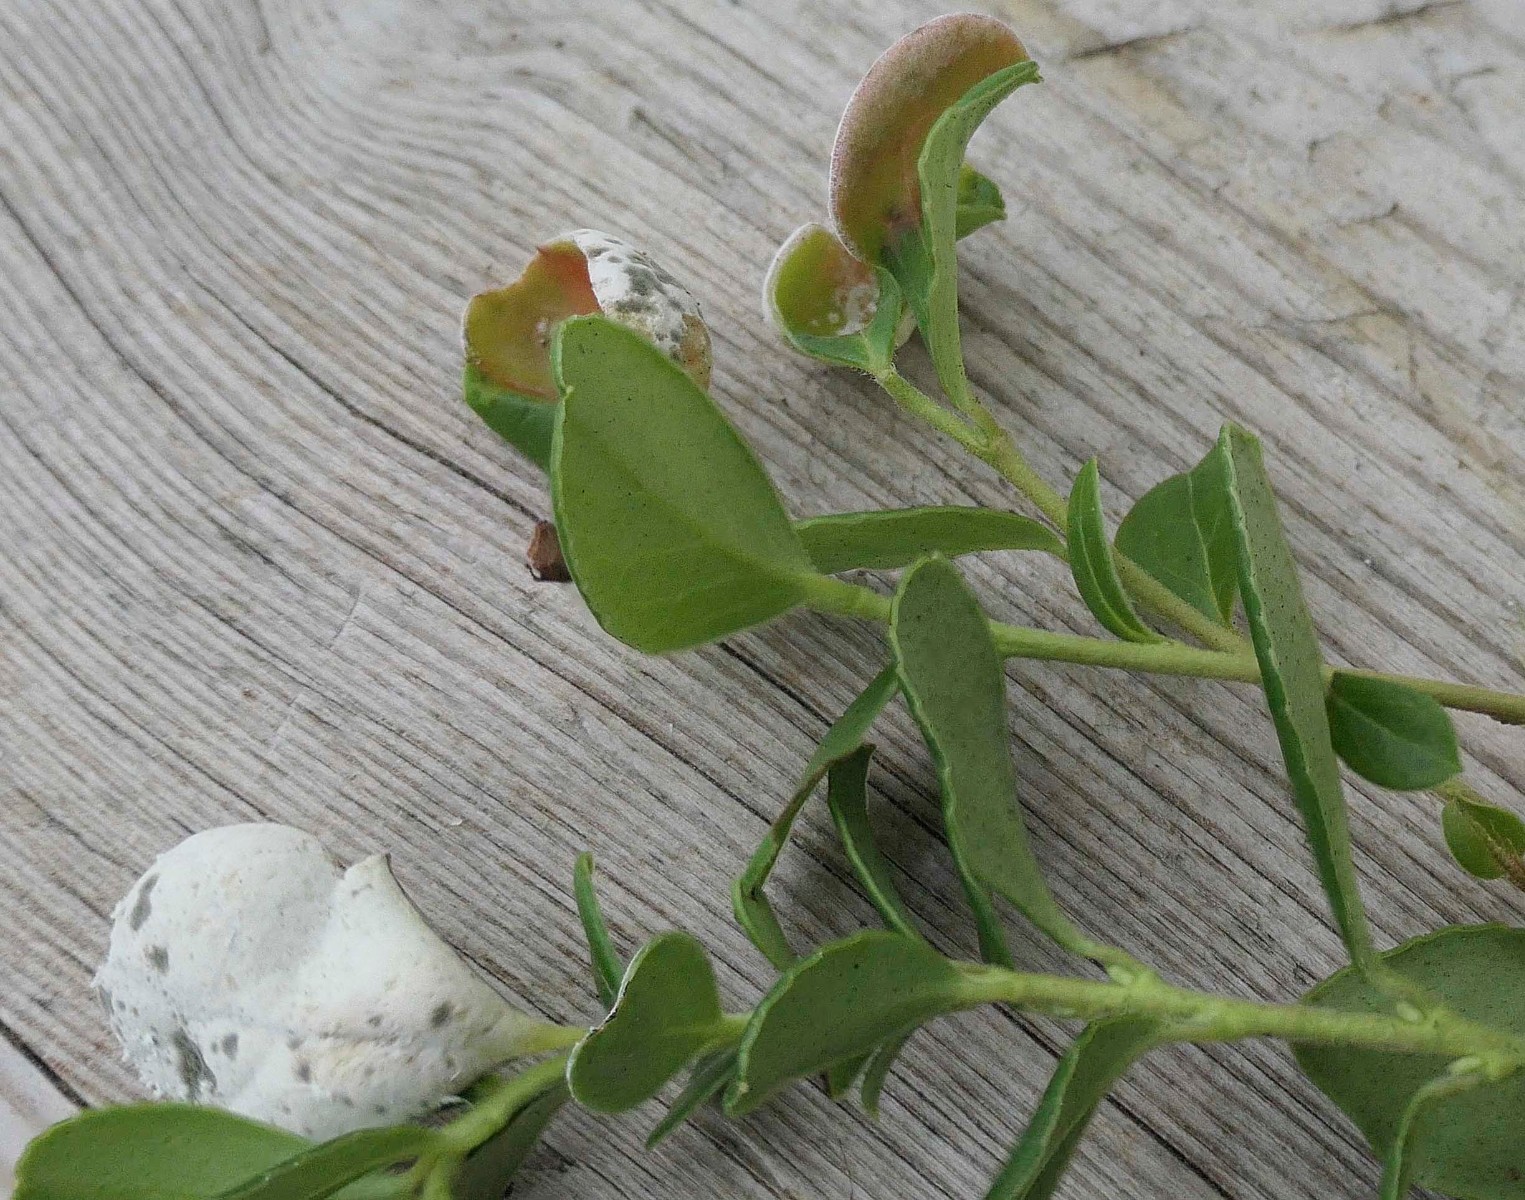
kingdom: Fungi
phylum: Basidiomycota
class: Exobasidiomycetes
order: Exobasidiales
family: Exobasidiaceae
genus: Exobasidium
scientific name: Exobasidium vaccinii
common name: tyttebærblad-bøllesvamp
